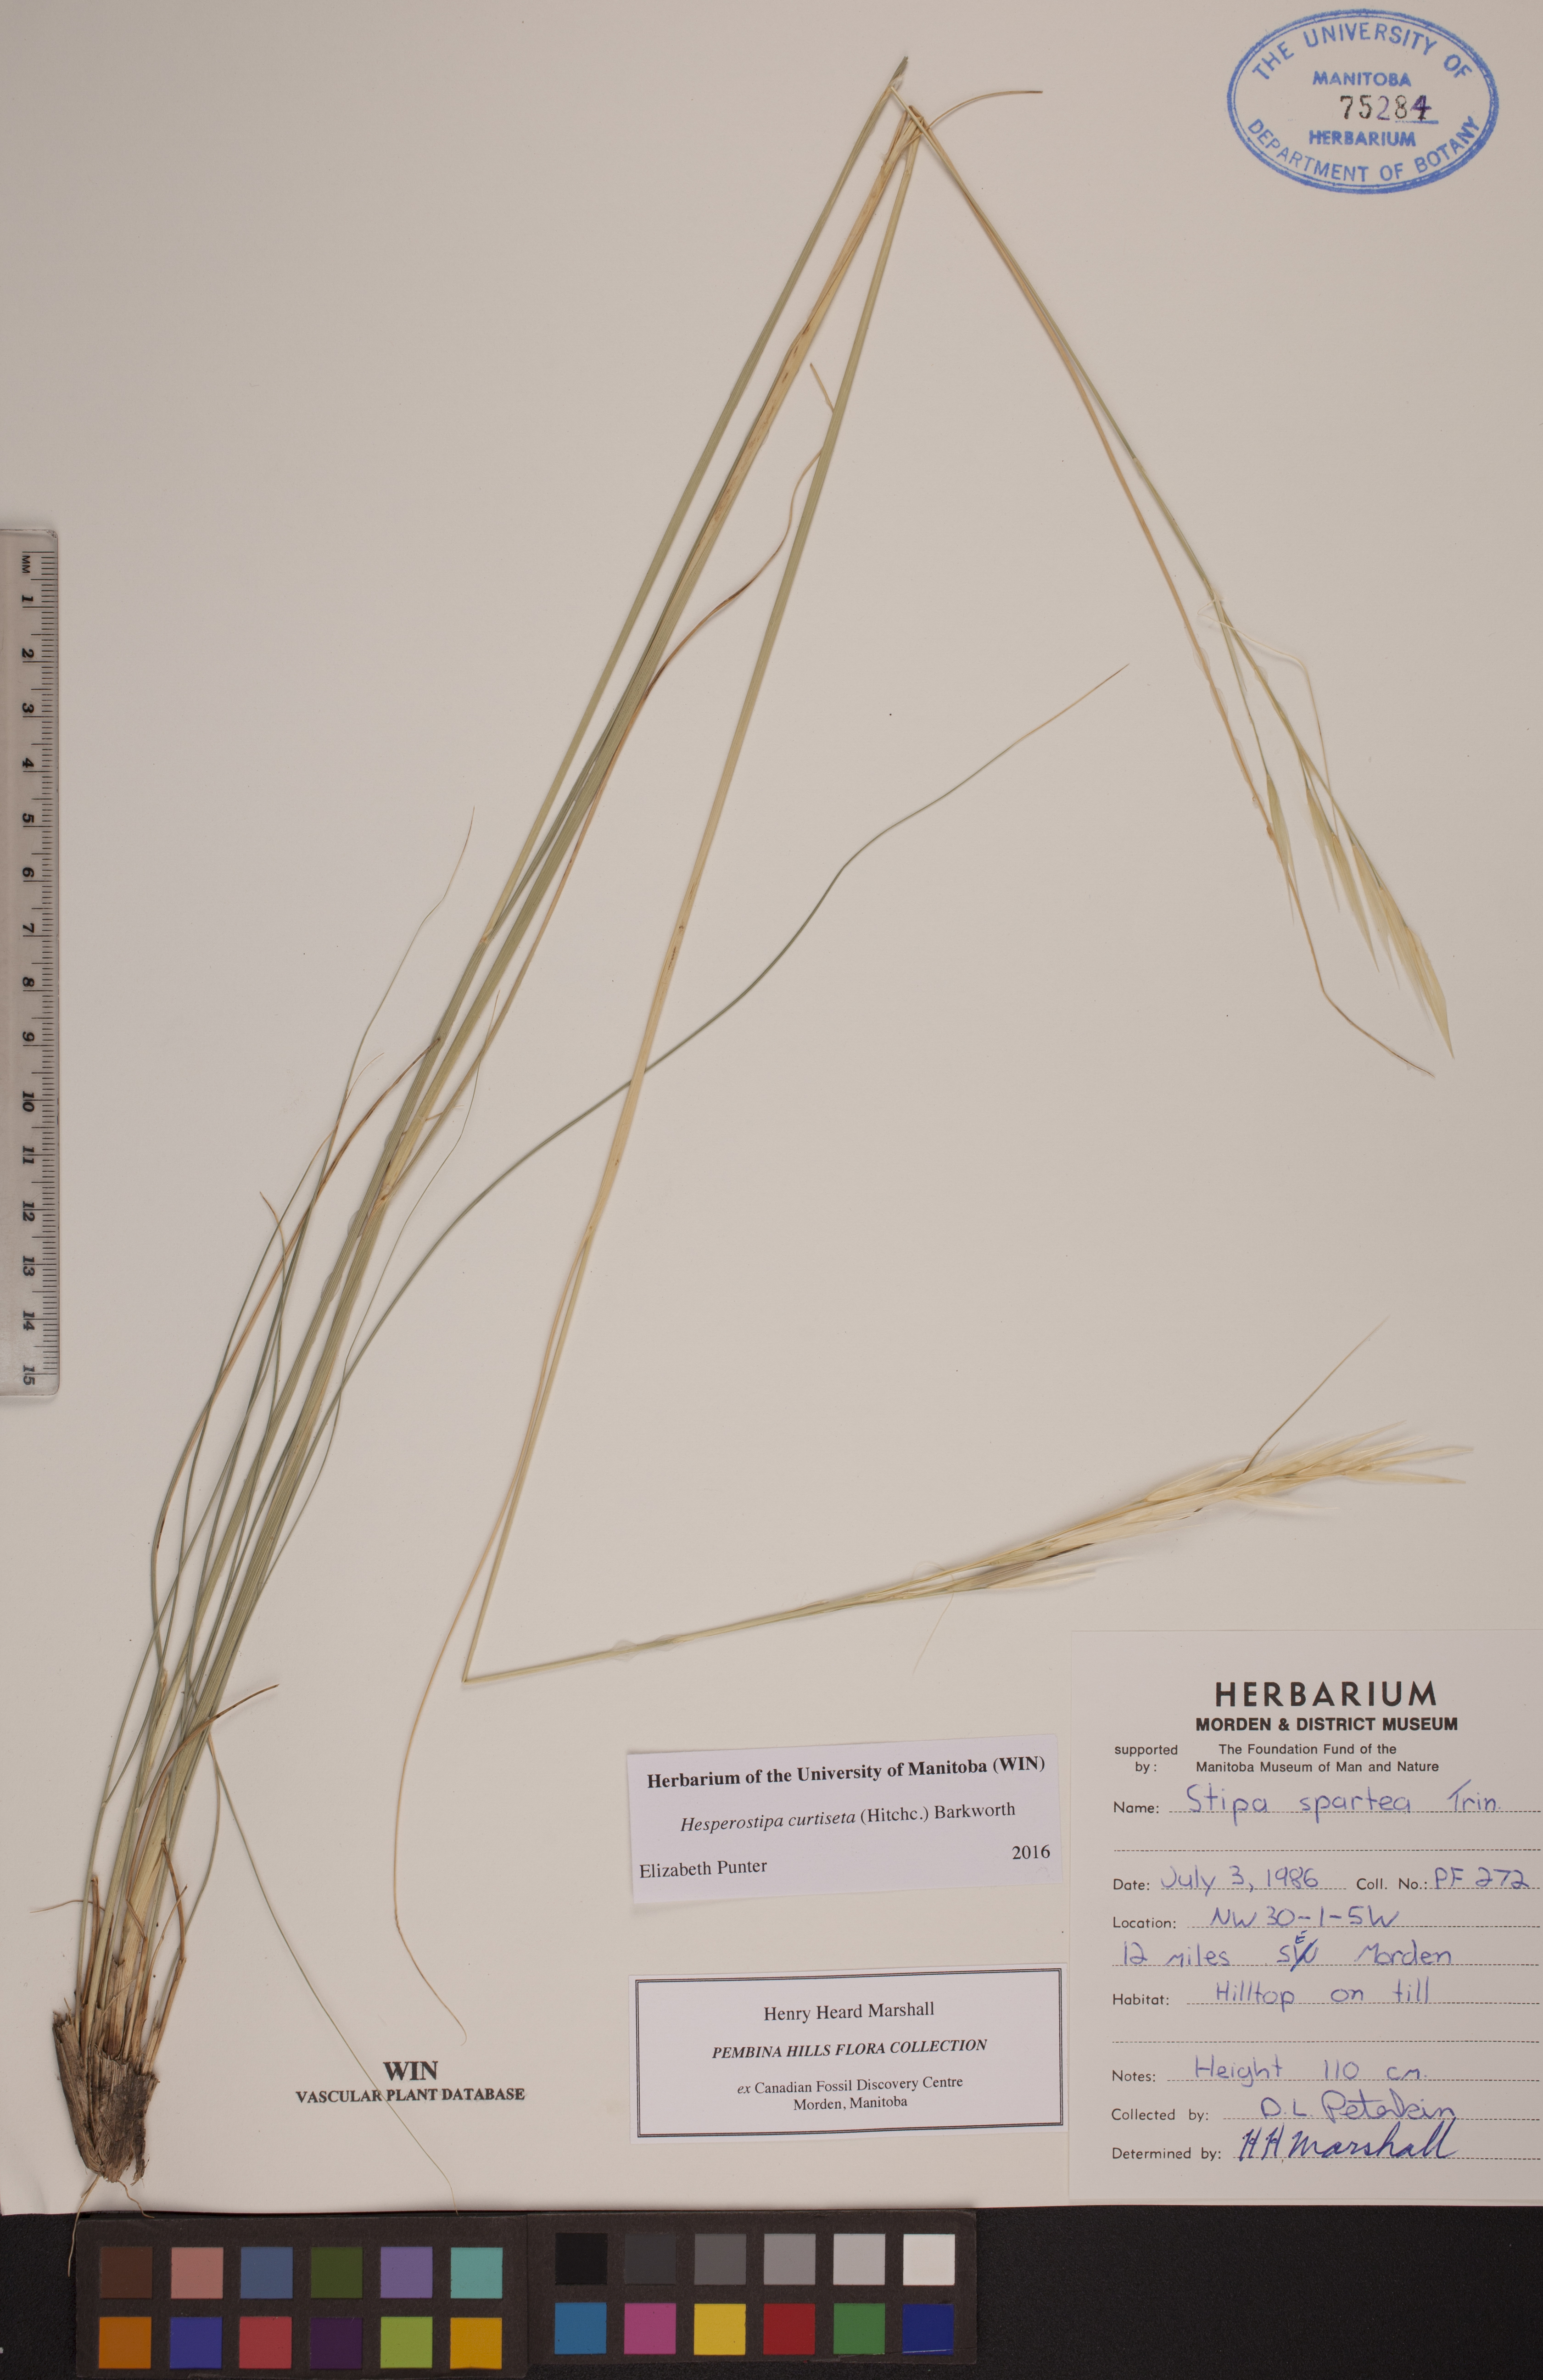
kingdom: Plantae
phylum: Tracheophyta
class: Liliopsida
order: Poales
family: Poaceae
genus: Hesperostipa
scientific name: Hesperostipa curtiseta
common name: Canada needle-and-thread grass
